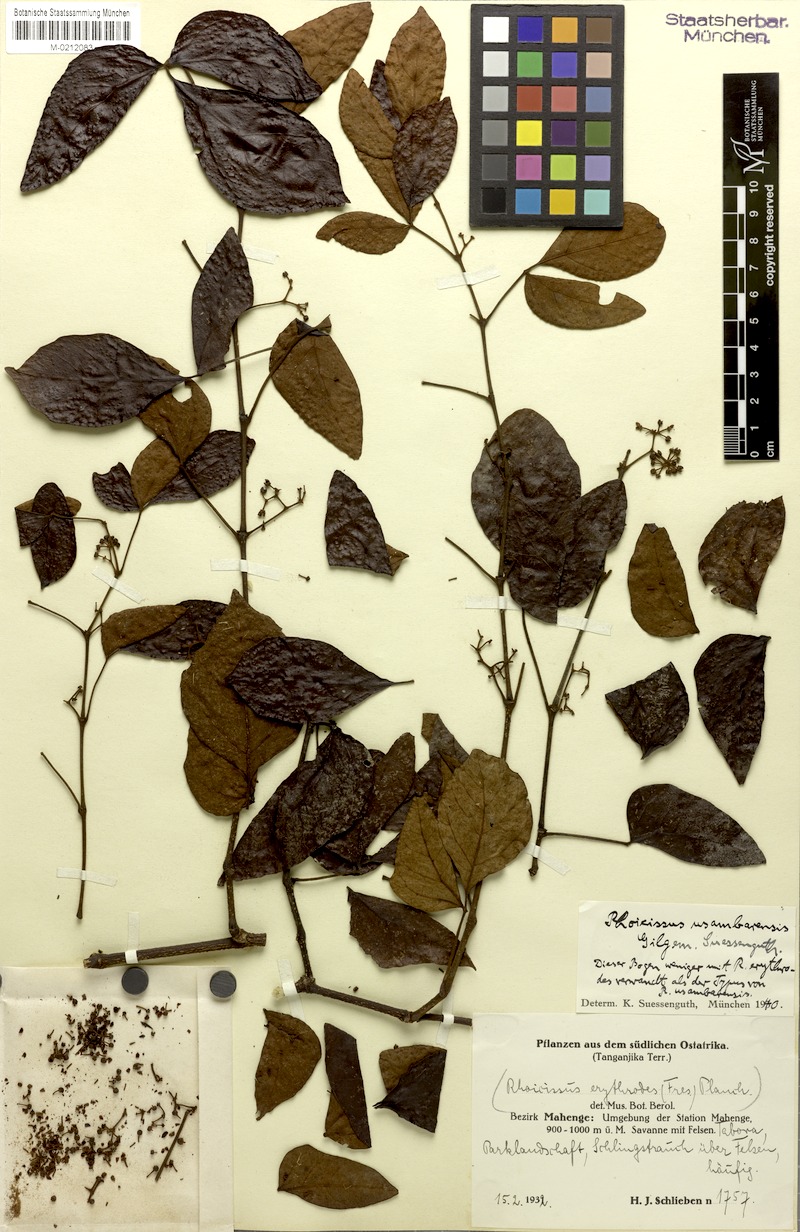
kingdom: Plantae
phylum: Tracheophyta
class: Magnoliopsida
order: Vitales
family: Vitaceae
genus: Rhoicissus
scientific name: Rhoicissus tridentata
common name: Common forest grape
